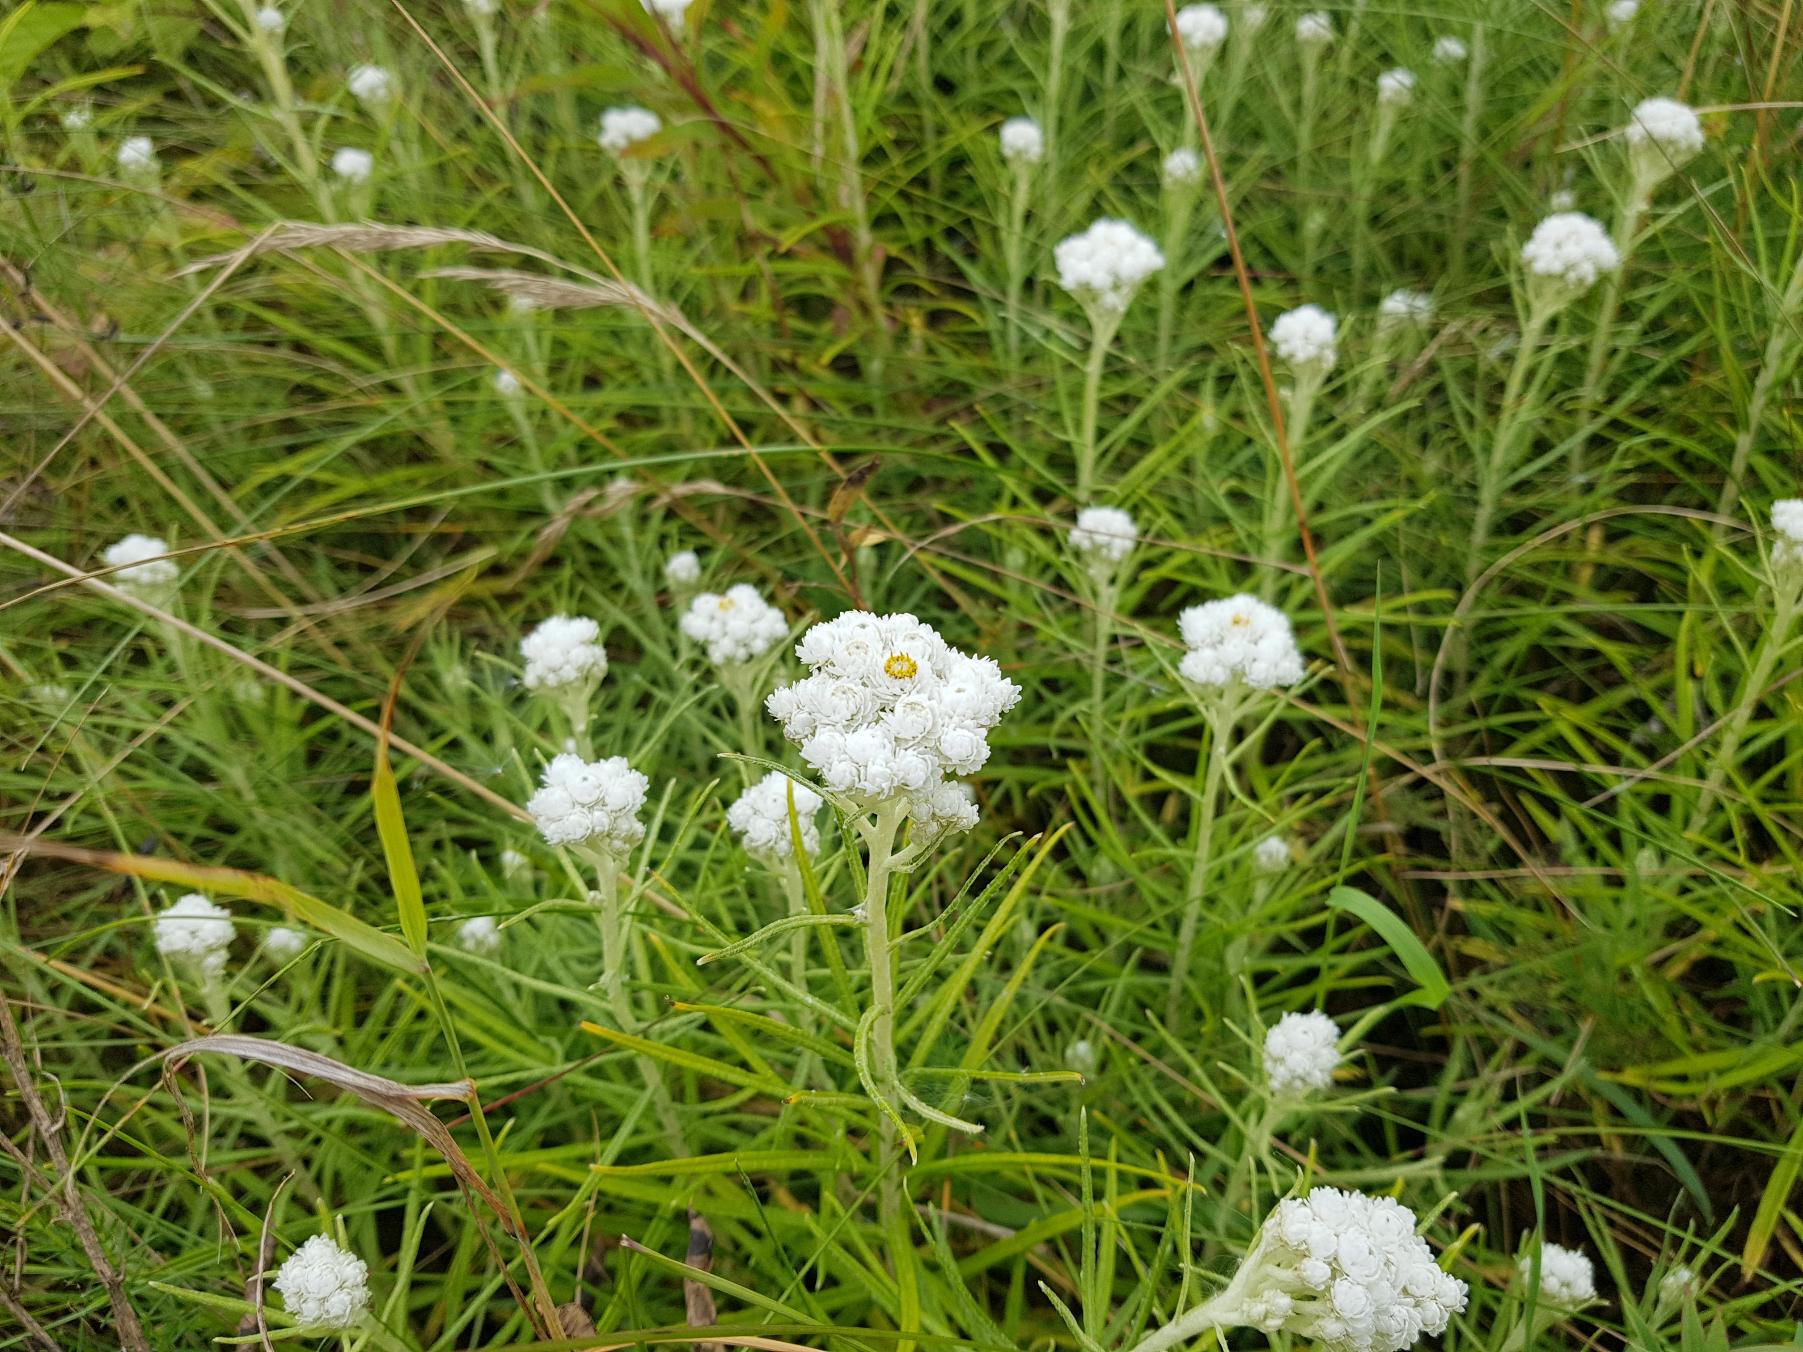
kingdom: Plantae
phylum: Tracheophyta
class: Magnoliopsida
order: Asterales
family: Asteraceae
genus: Anaphalis
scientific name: Anaphalis margaritacea
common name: Perlekurv
